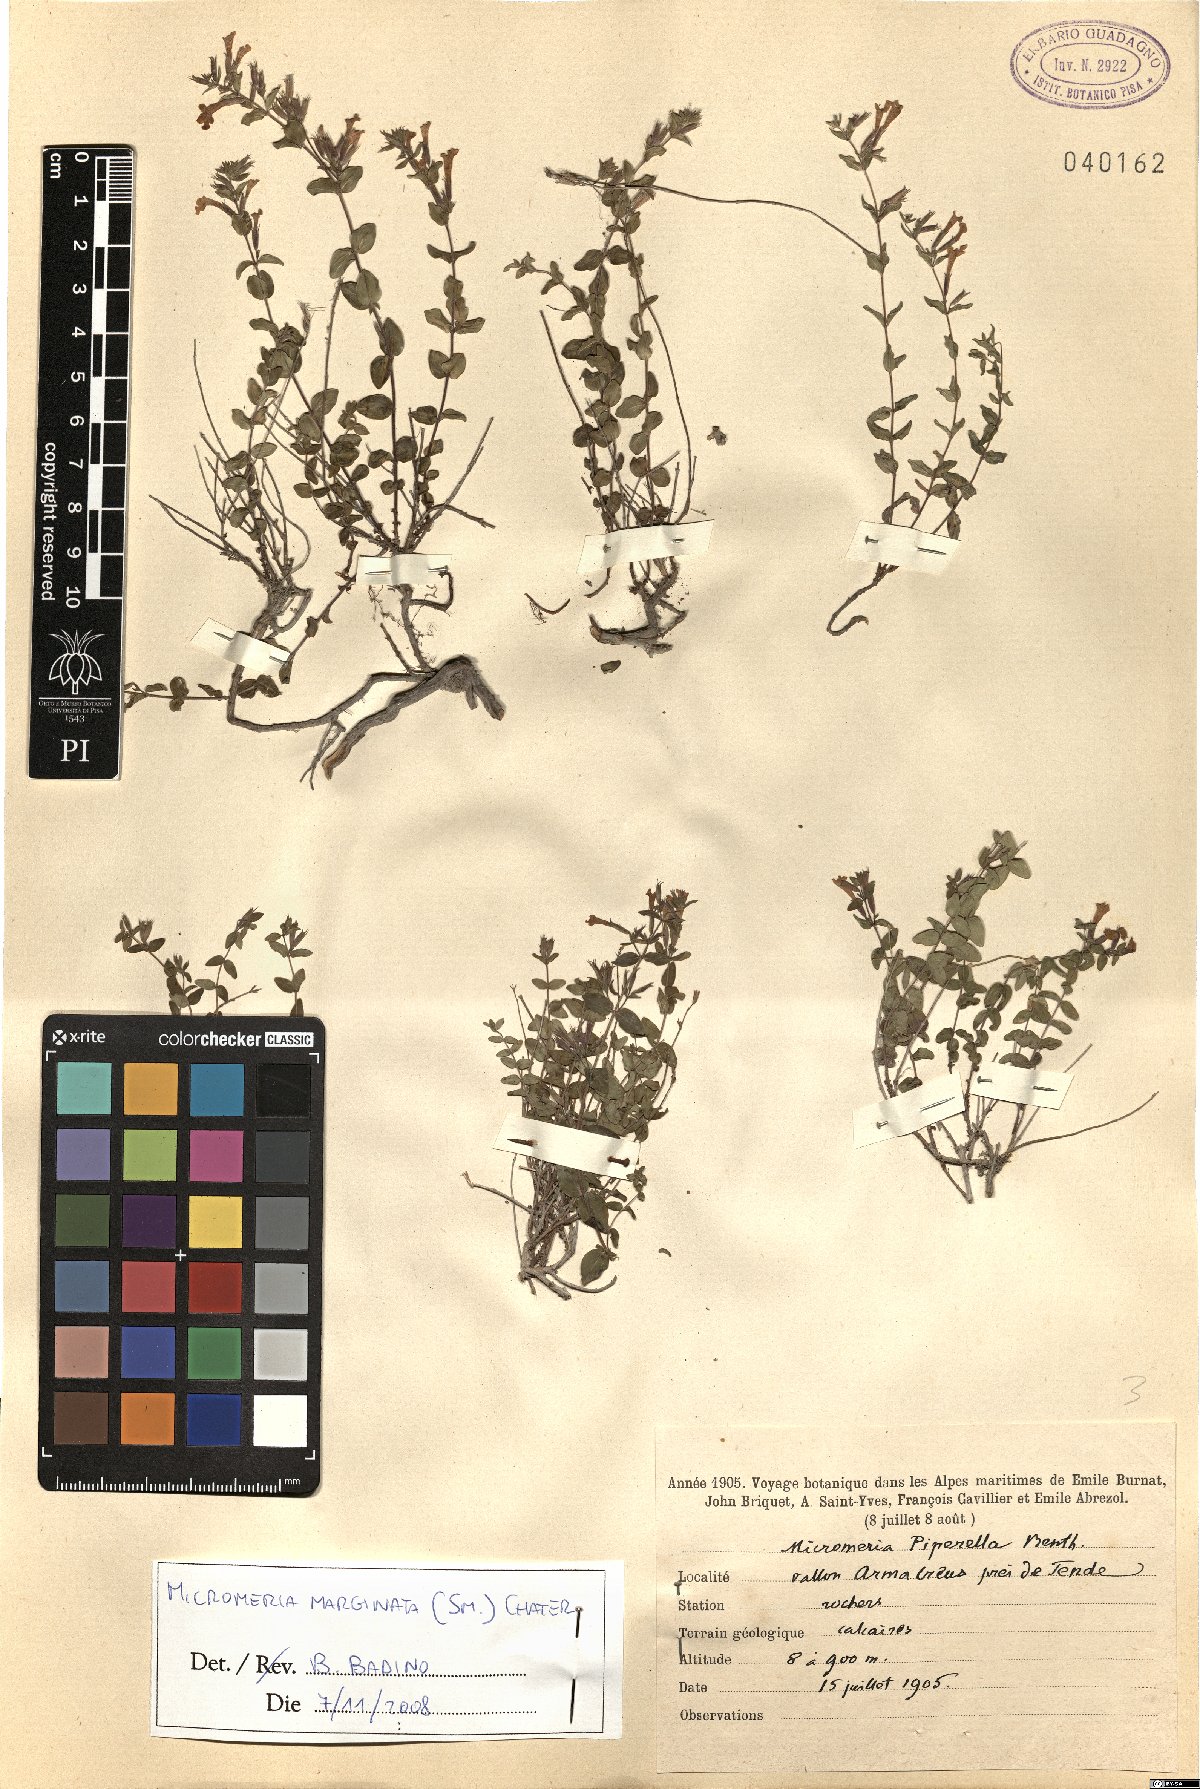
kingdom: Plantae
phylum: Tracheophyta
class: Magnoliopsida
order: Lamiales
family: Lamiaceae
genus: Micromeria
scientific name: Micromeria marginata
